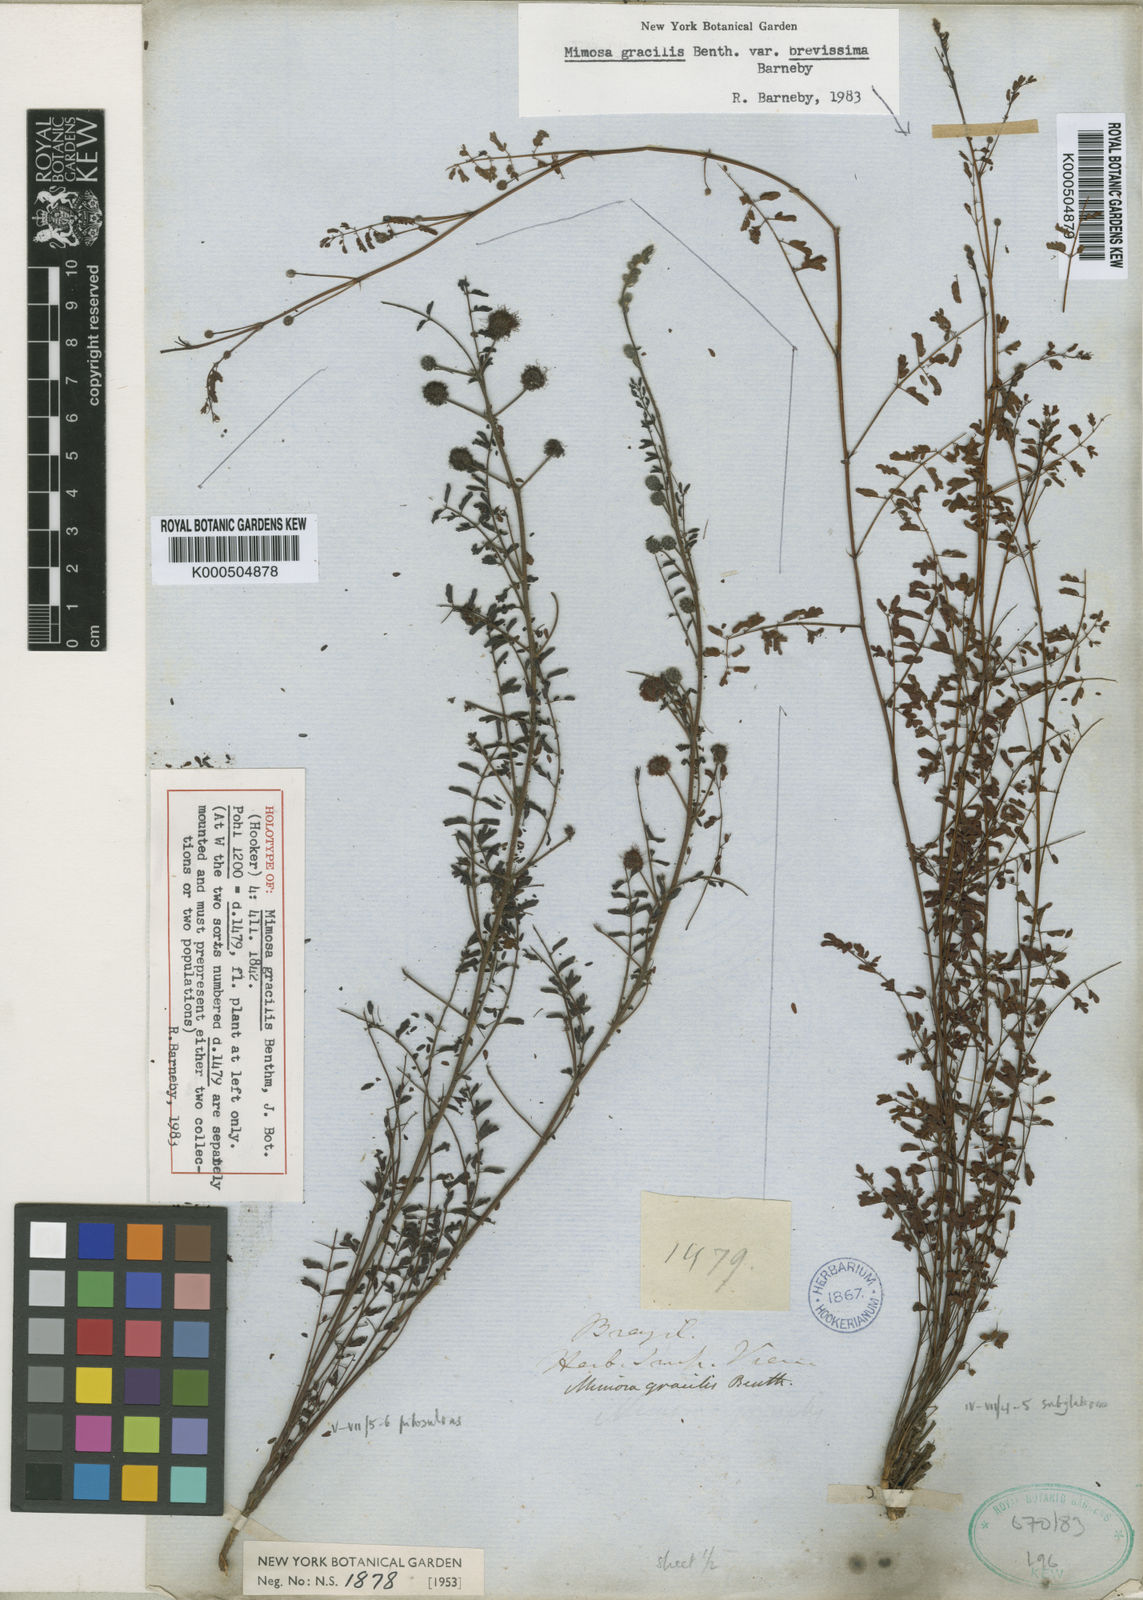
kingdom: Plantae
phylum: Tracheophyta
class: Magnoliopsida
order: Fabales
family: Fabaceae
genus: Mimosa
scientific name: Mimosa gracilis
